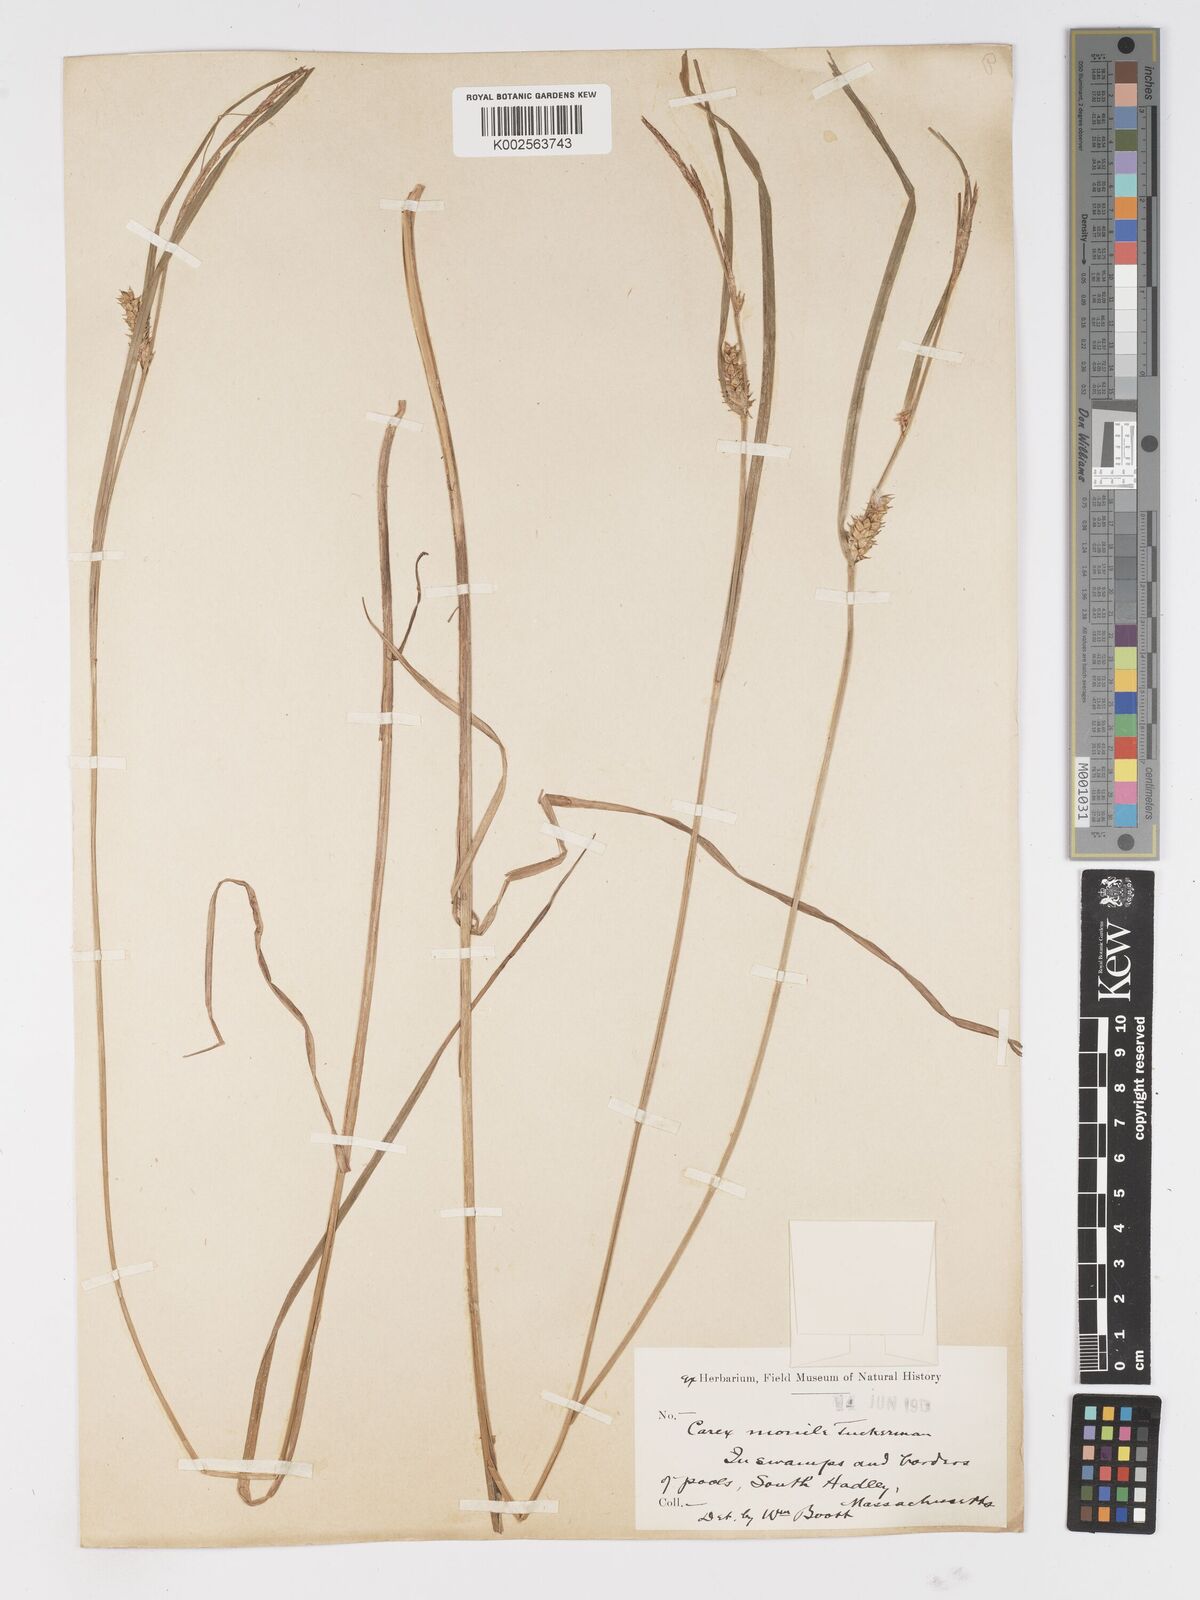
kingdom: Plantae
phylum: Tracheophyta
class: Liliopsida
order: Poales
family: Cyperaceae
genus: Carex
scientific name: Carex vesicaria
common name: Bladder-sedge
